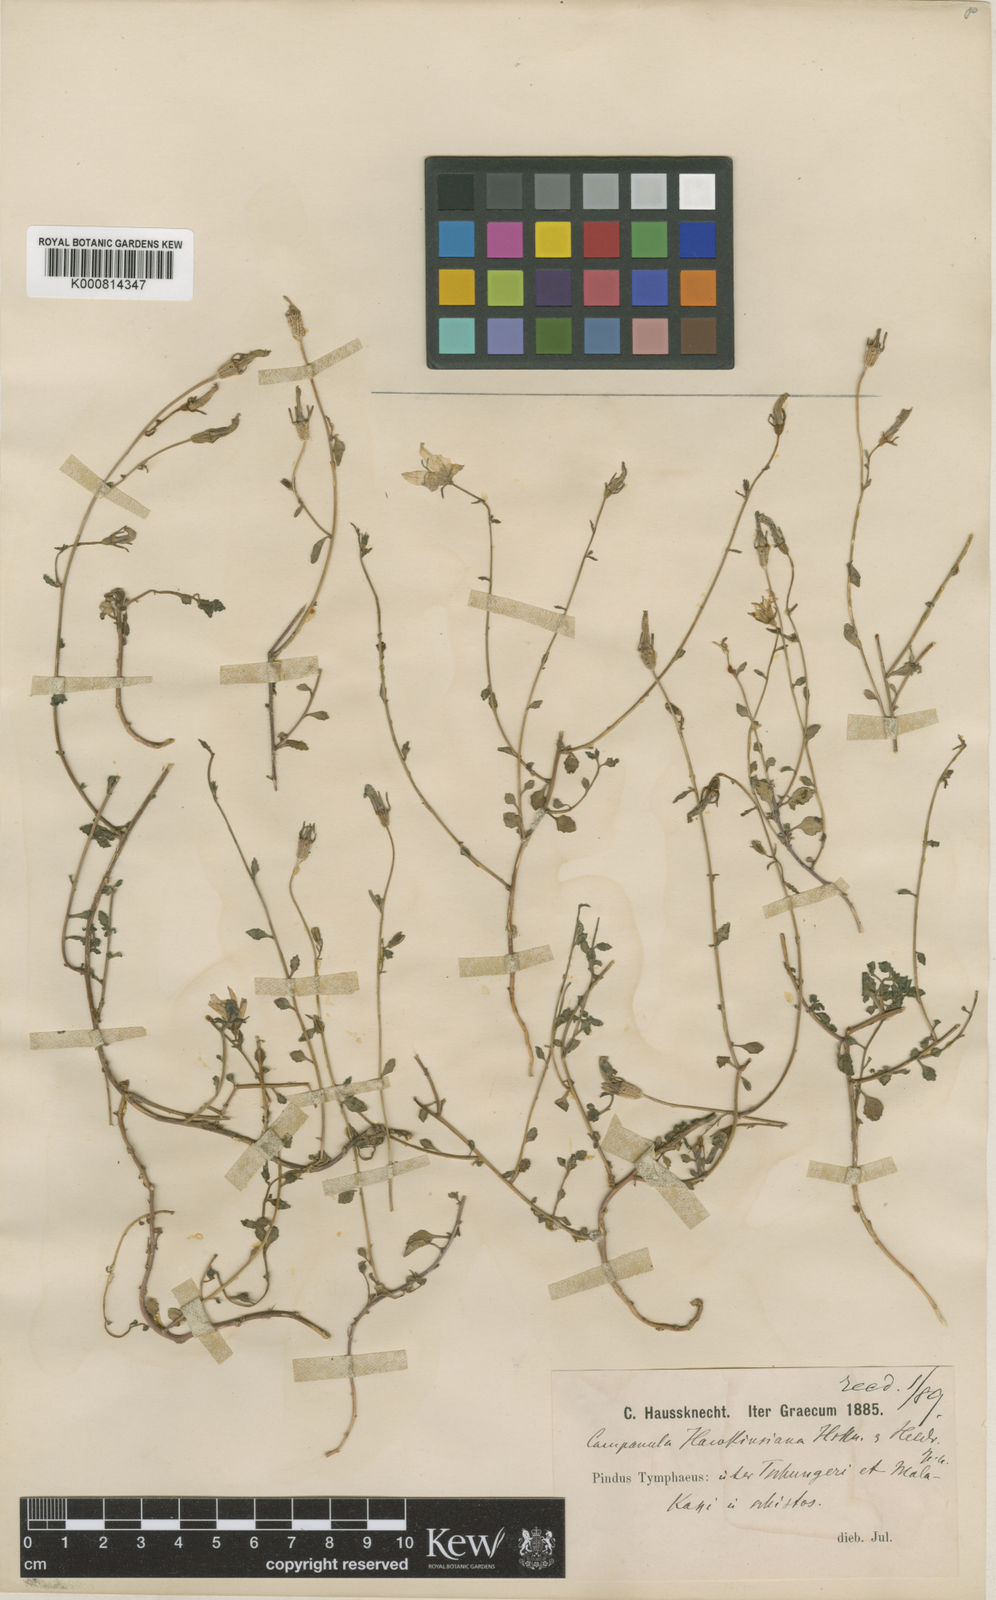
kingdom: Plantae
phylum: Tracheophyta
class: Magnoliopsida
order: Asterales
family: Campanulaceae
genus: Campanula
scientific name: Campanula hawkinsiana
